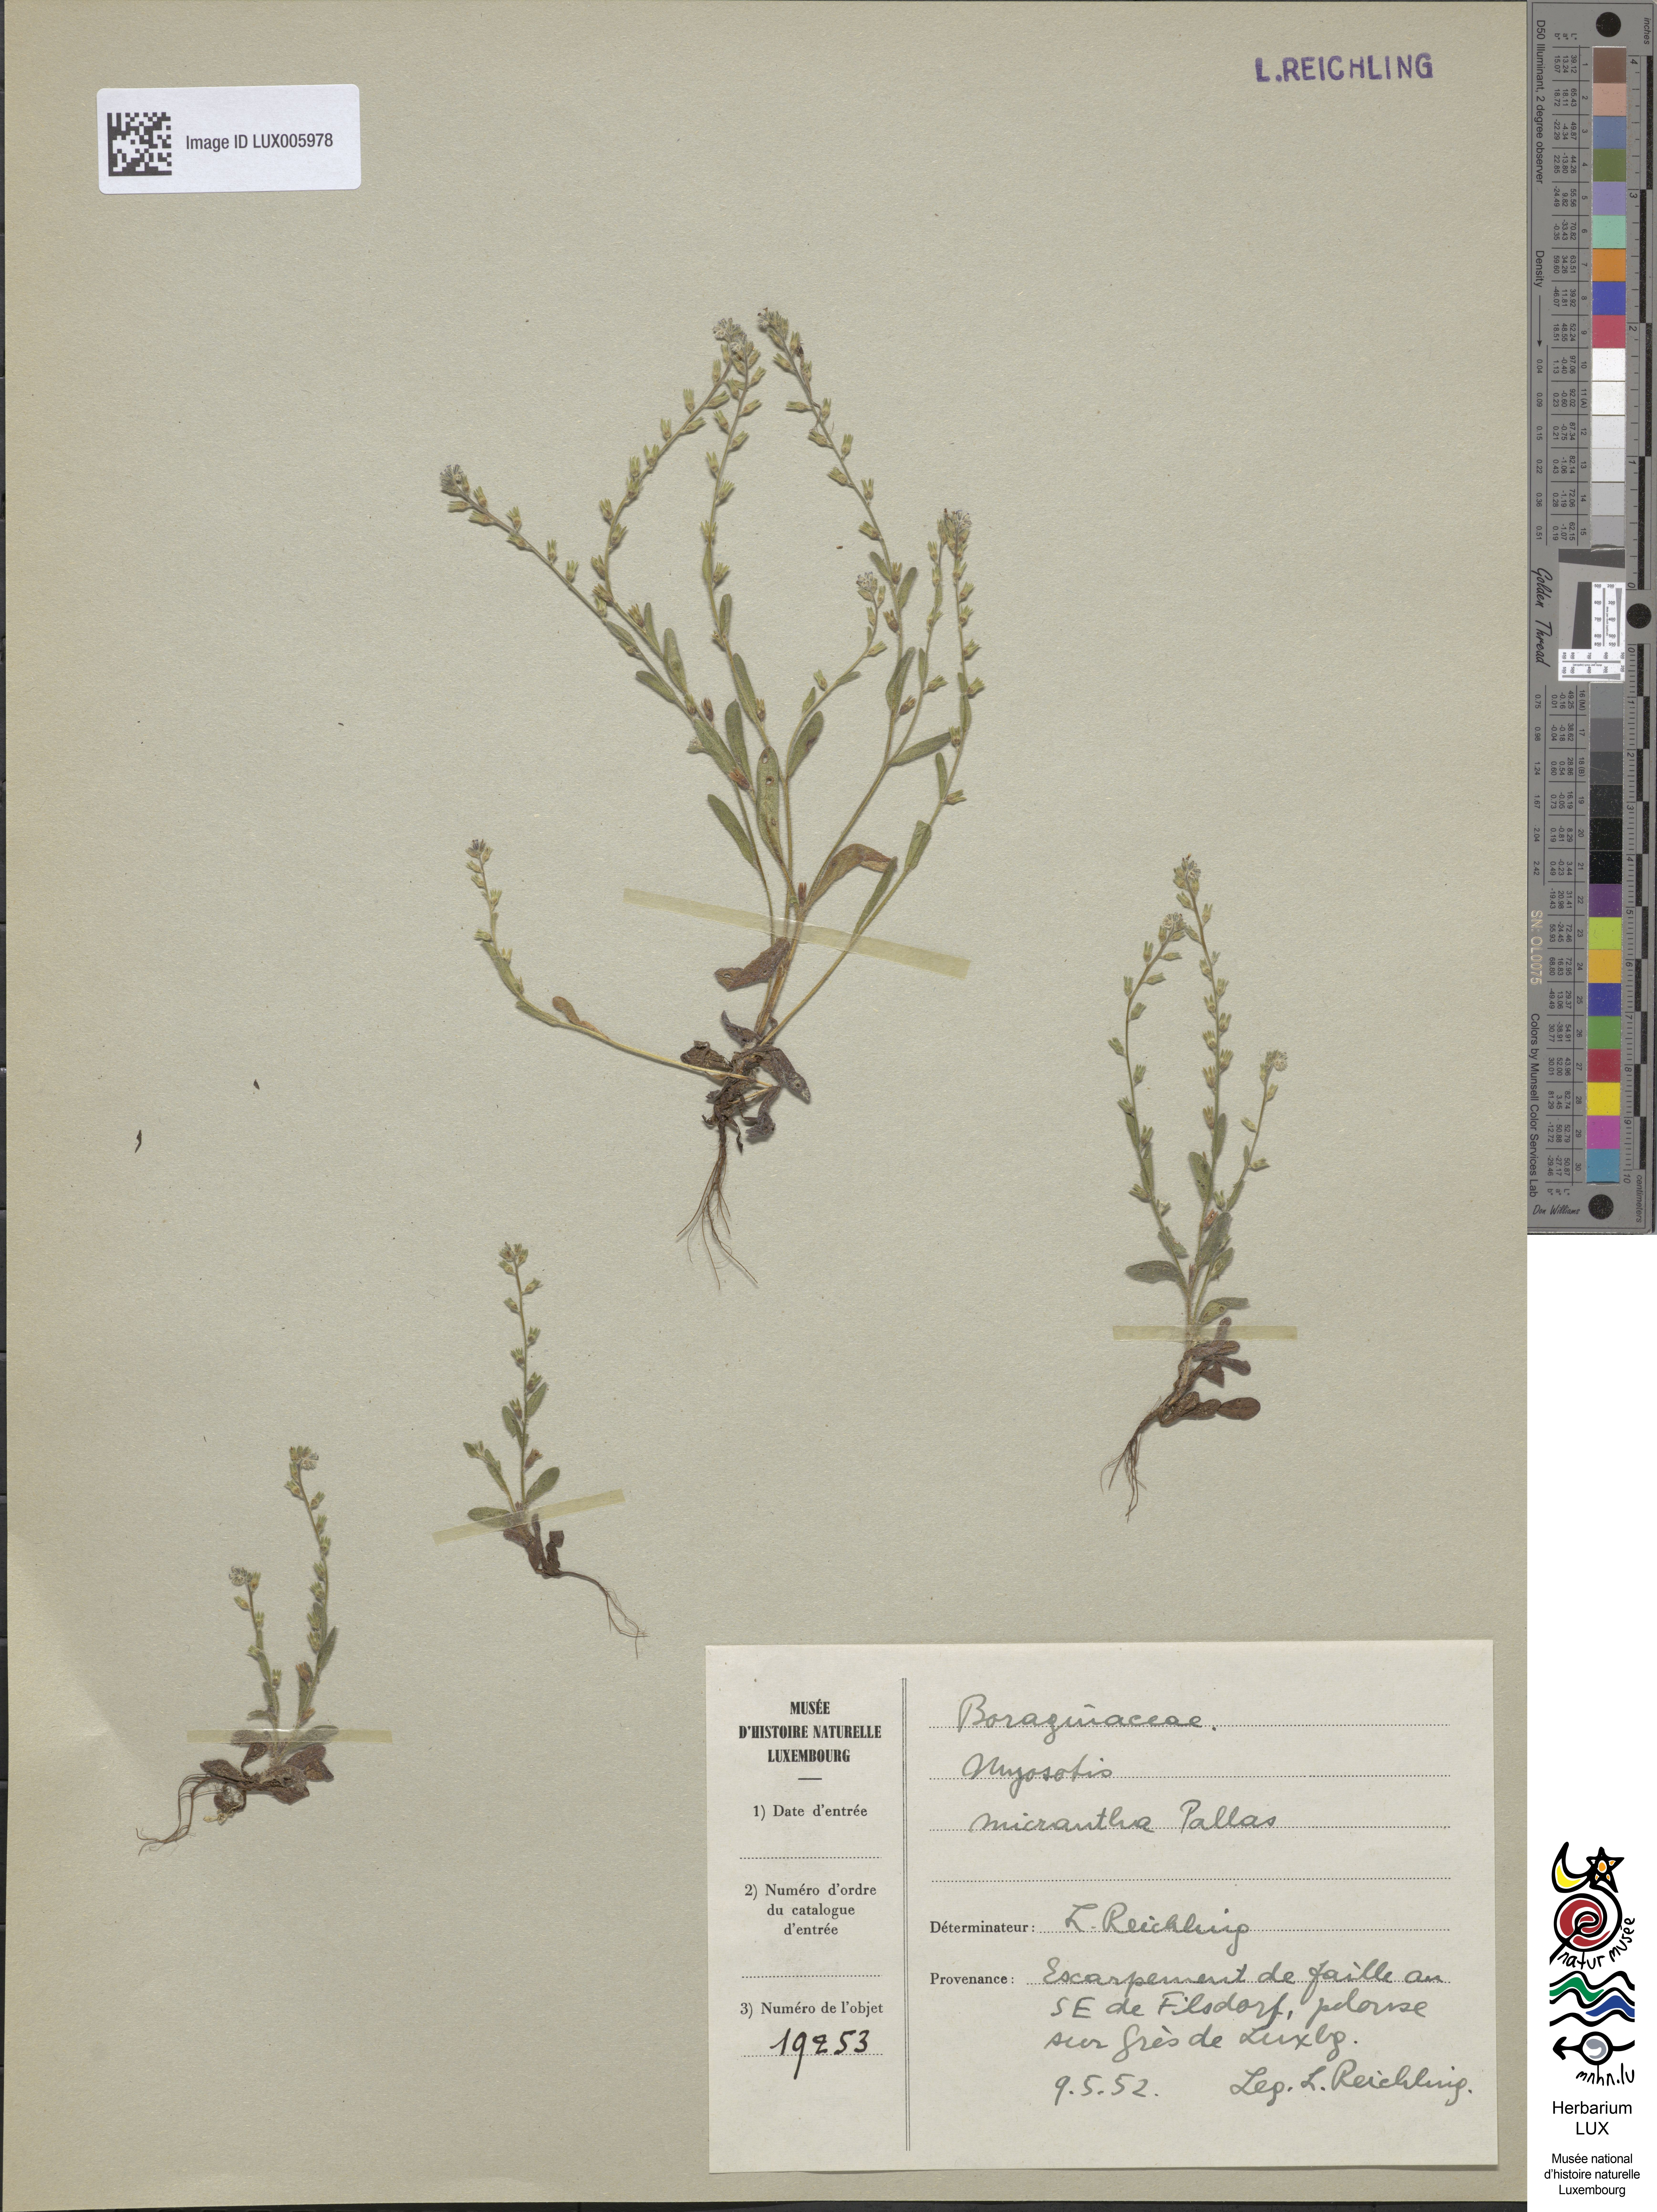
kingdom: Plantae
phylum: Tracheophyta
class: Magnoliopsida
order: Boraginales
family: Boraginaceae
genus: Myosotis
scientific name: Myosotis stricta
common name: Strict forget-me-not
